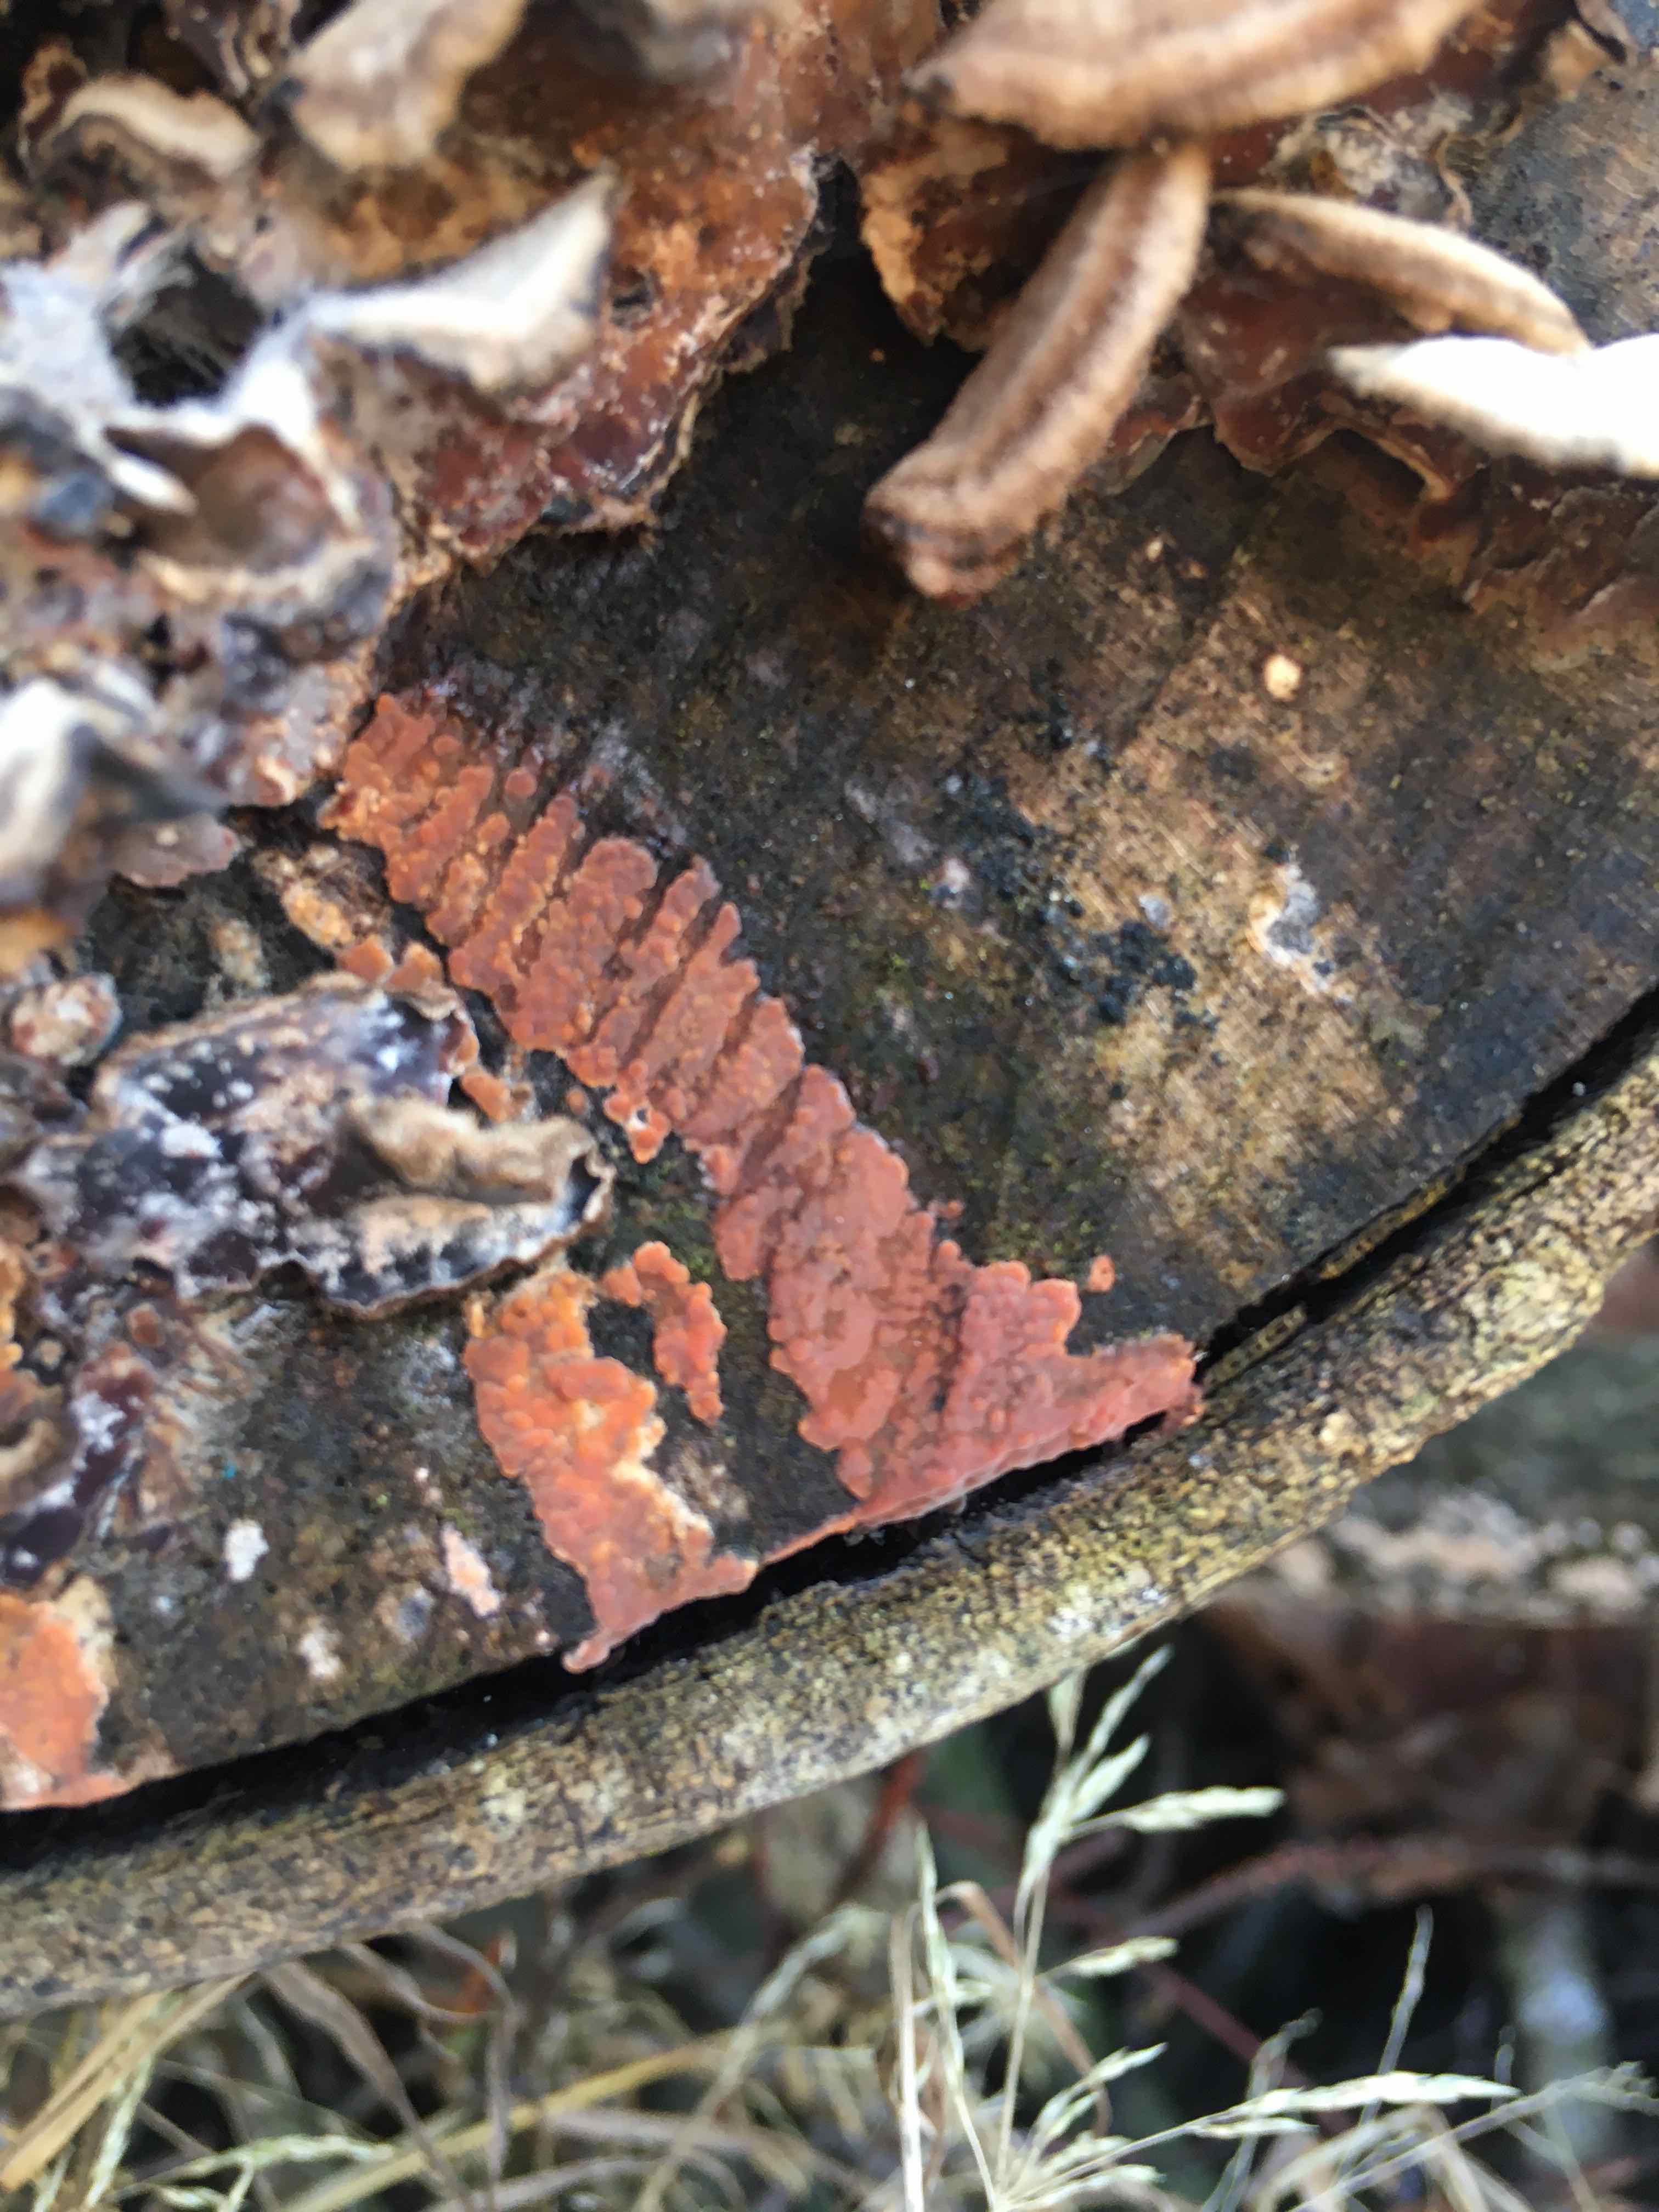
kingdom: Fungi
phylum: Basidiomycota
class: Agaricomycetes
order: Russulales
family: Peniophoraceae
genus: Peniophora
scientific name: Peniophora incarnata
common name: laksefarvet voksskind
